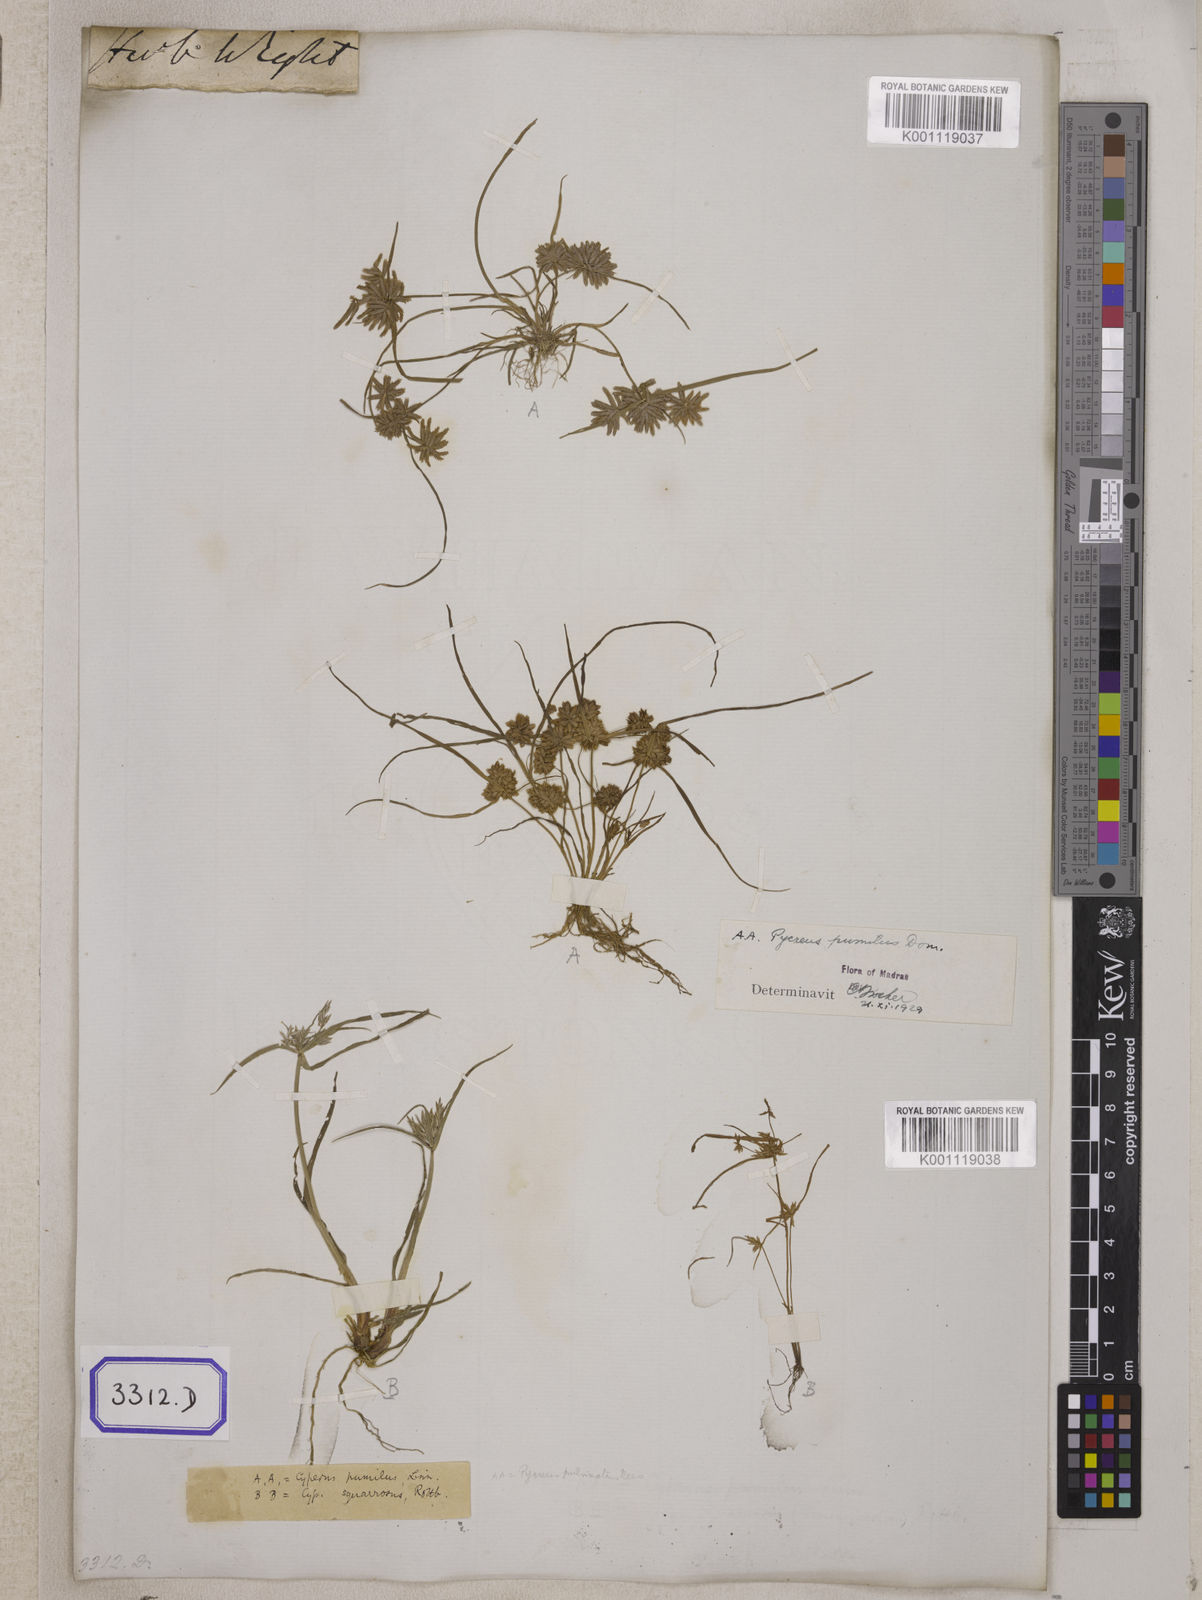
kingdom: Plantae
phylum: Tracheophyta
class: Liliopsida
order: Poales
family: Cyperaceae
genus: Cyperus
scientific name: Cyperus
